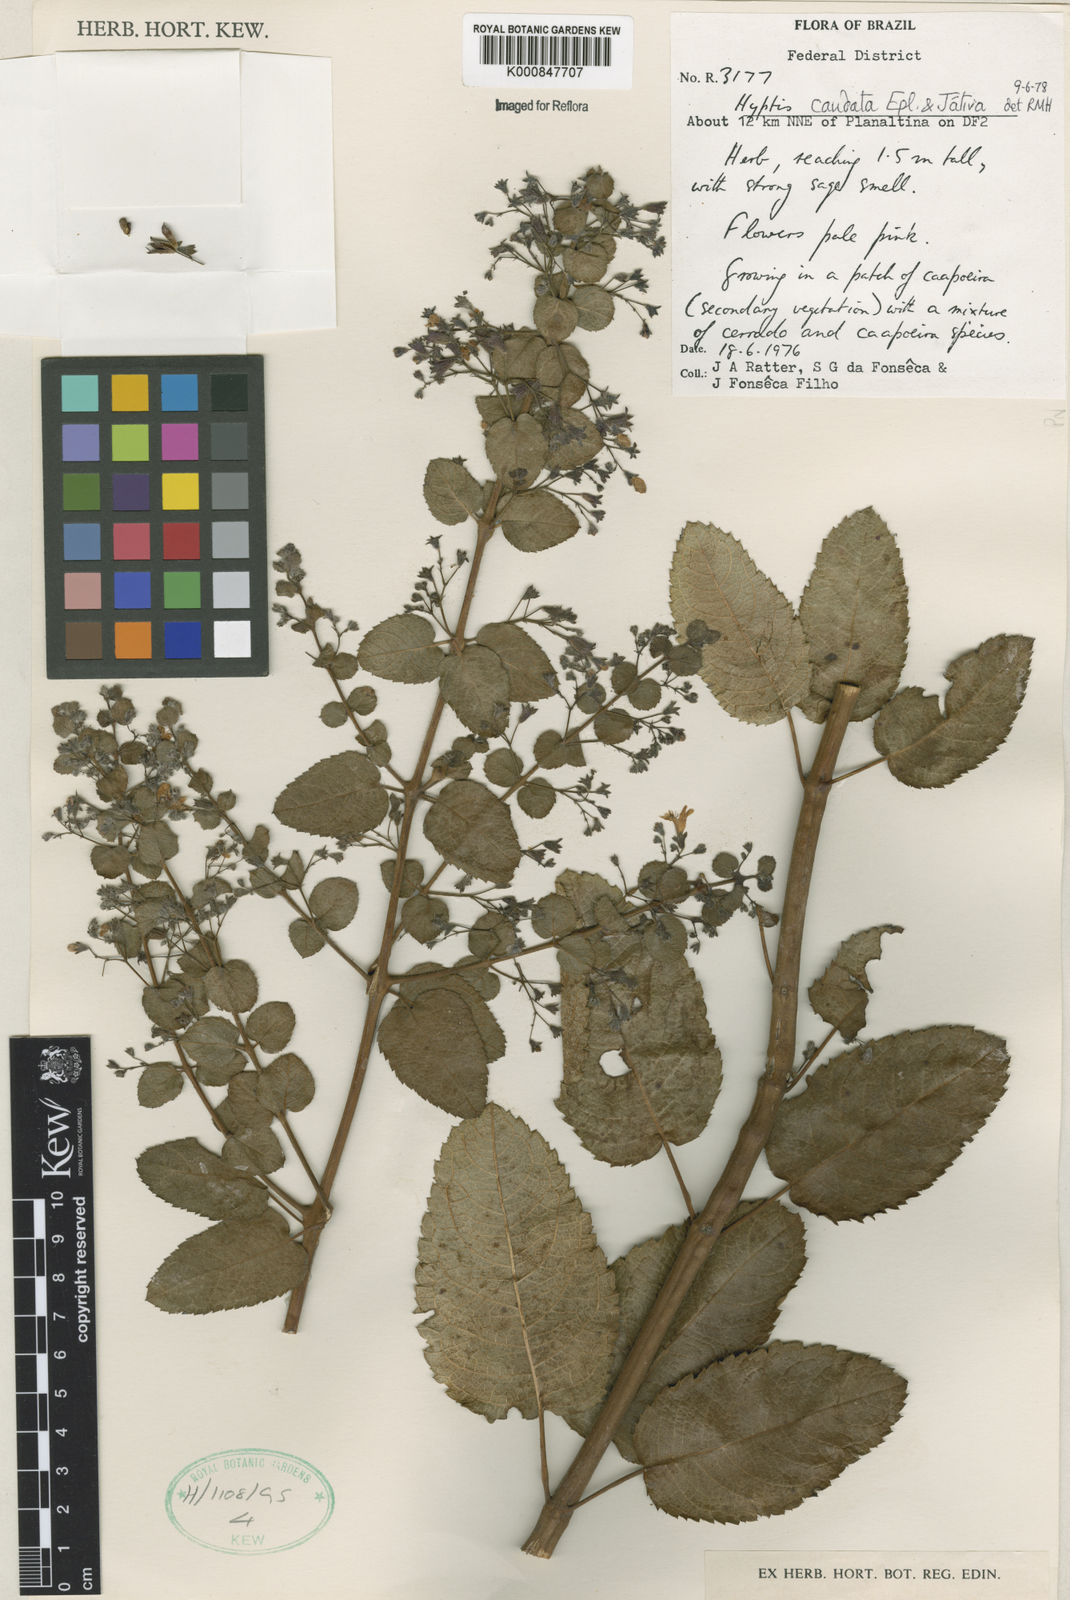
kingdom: Plantae
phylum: Tracheophyta
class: Magnoliopsida
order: Lamiales
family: Lamiaceae
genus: Hyptidendron
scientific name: Hyptidendron
